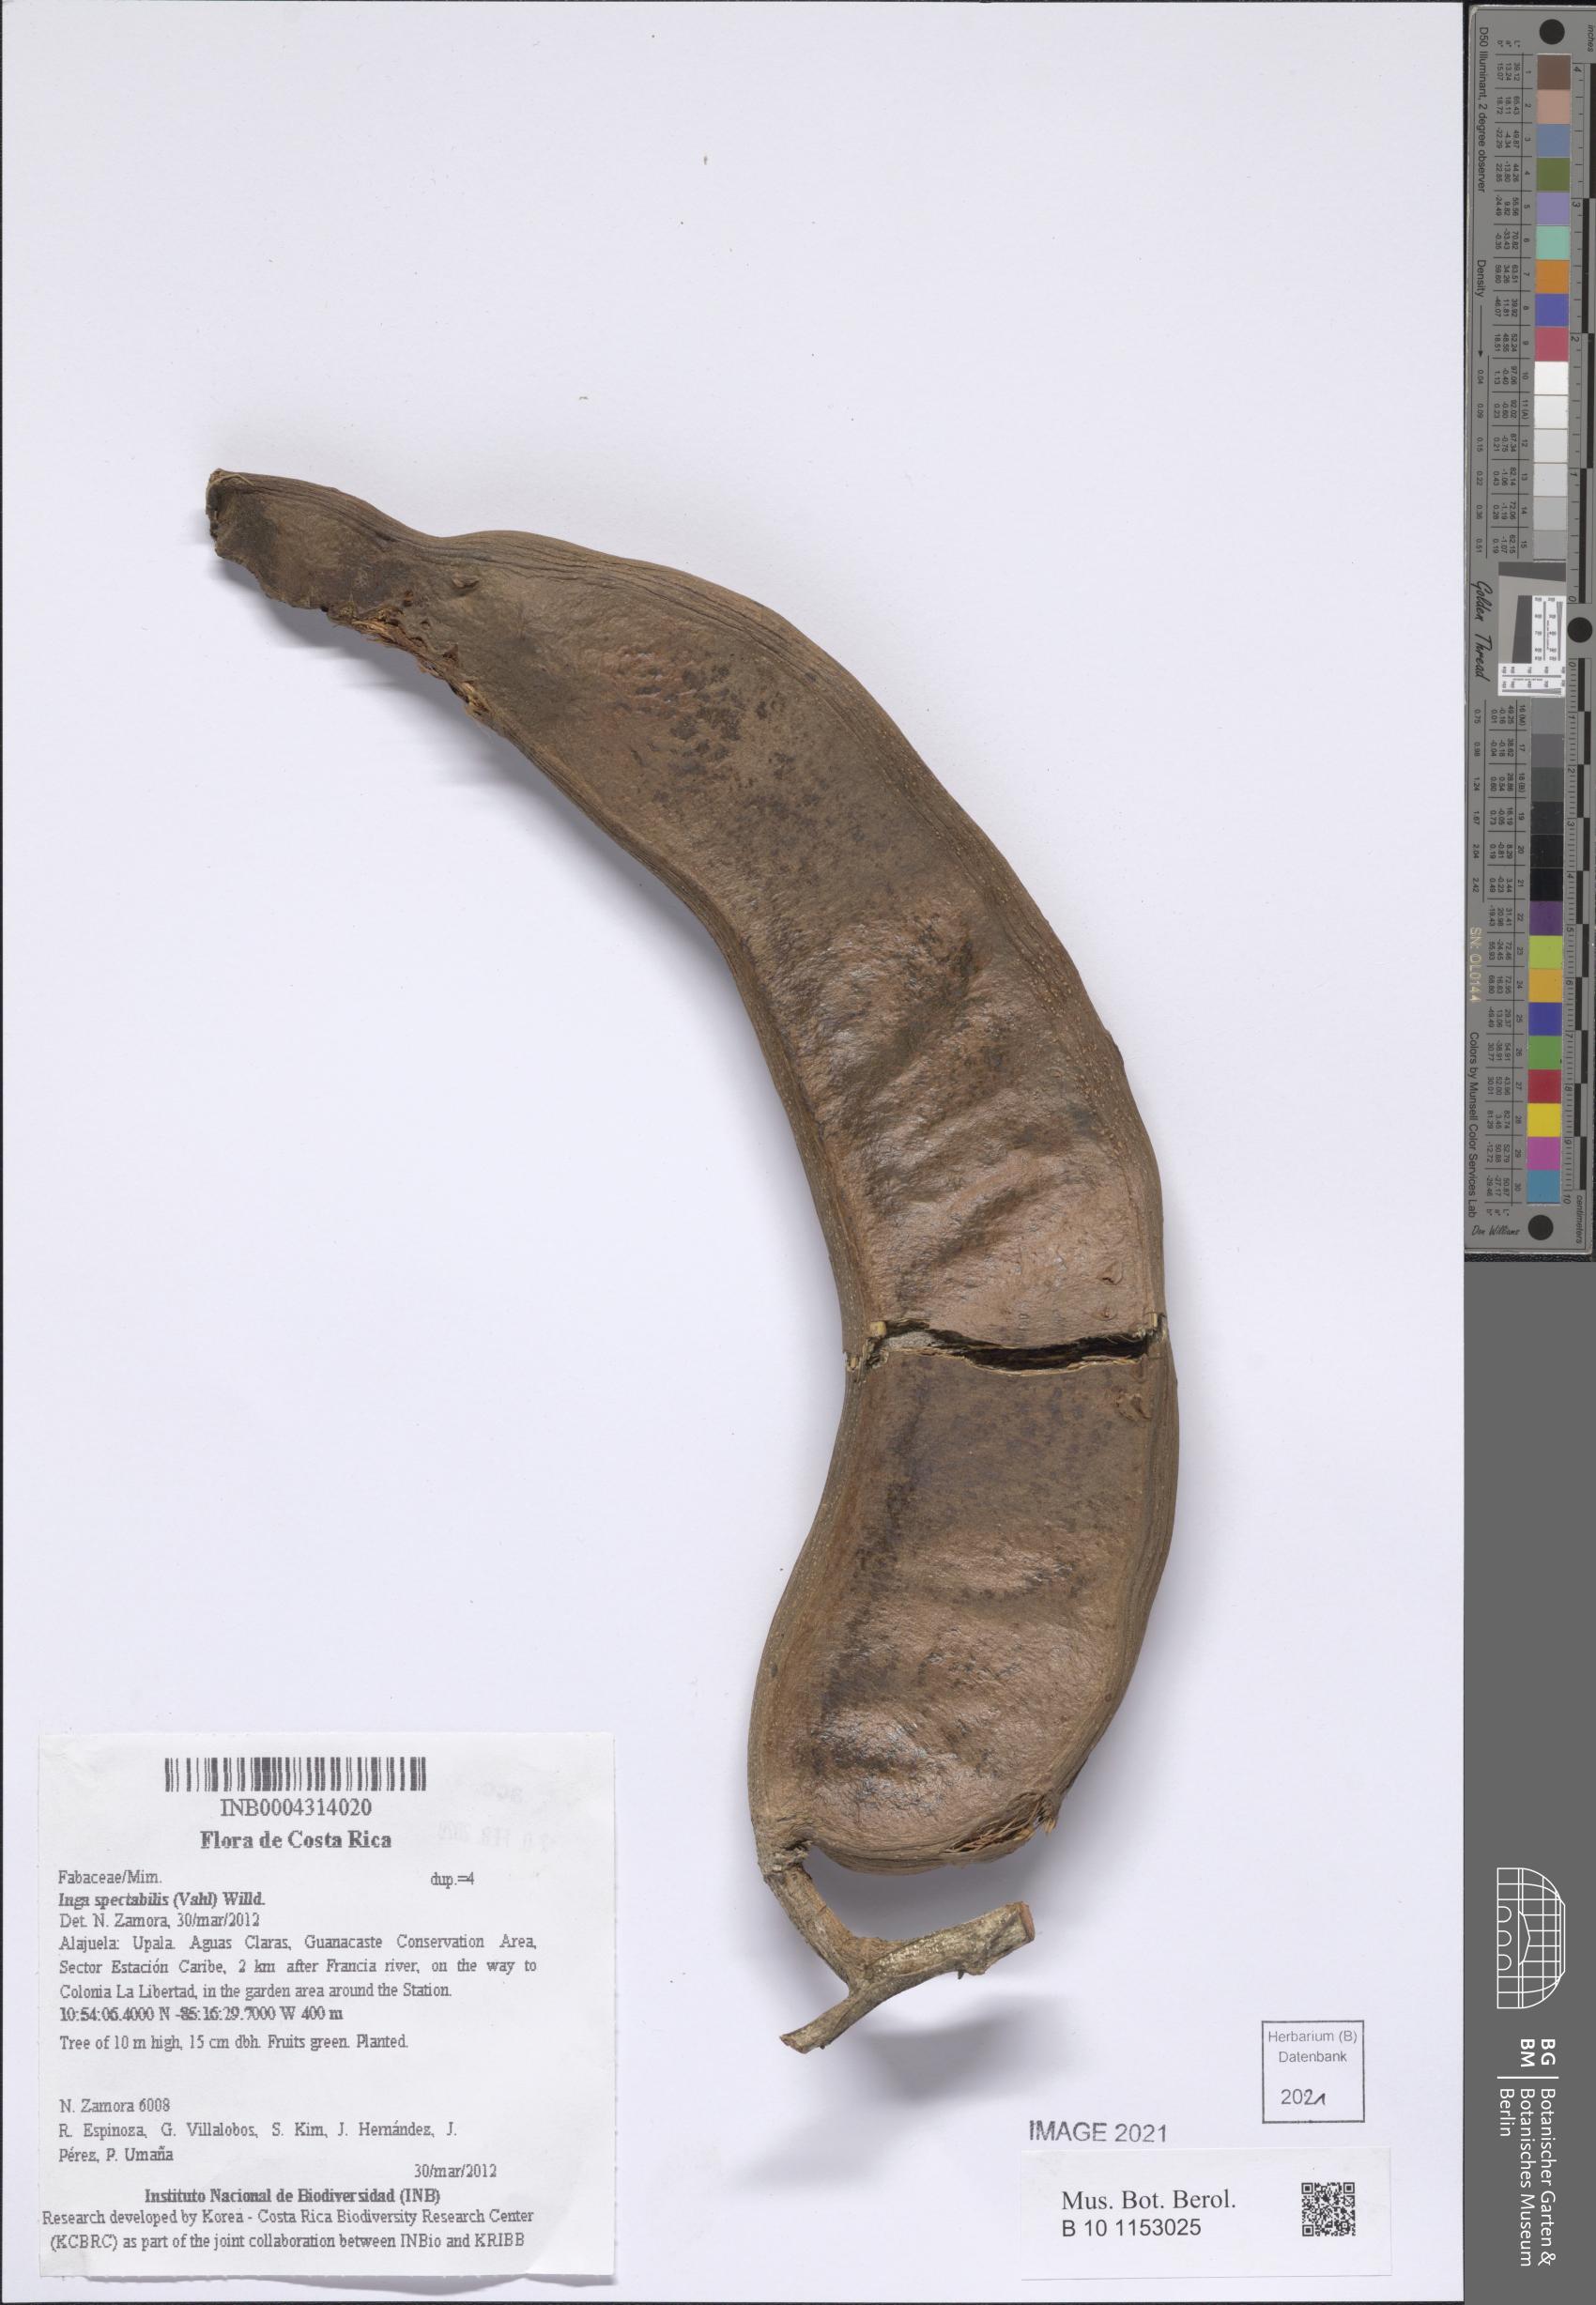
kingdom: Plantae
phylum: Tracheophyta
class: Magnoliopsida
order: Fabales
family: Fabaceae
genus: Inga
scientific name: Inga spectabilis
